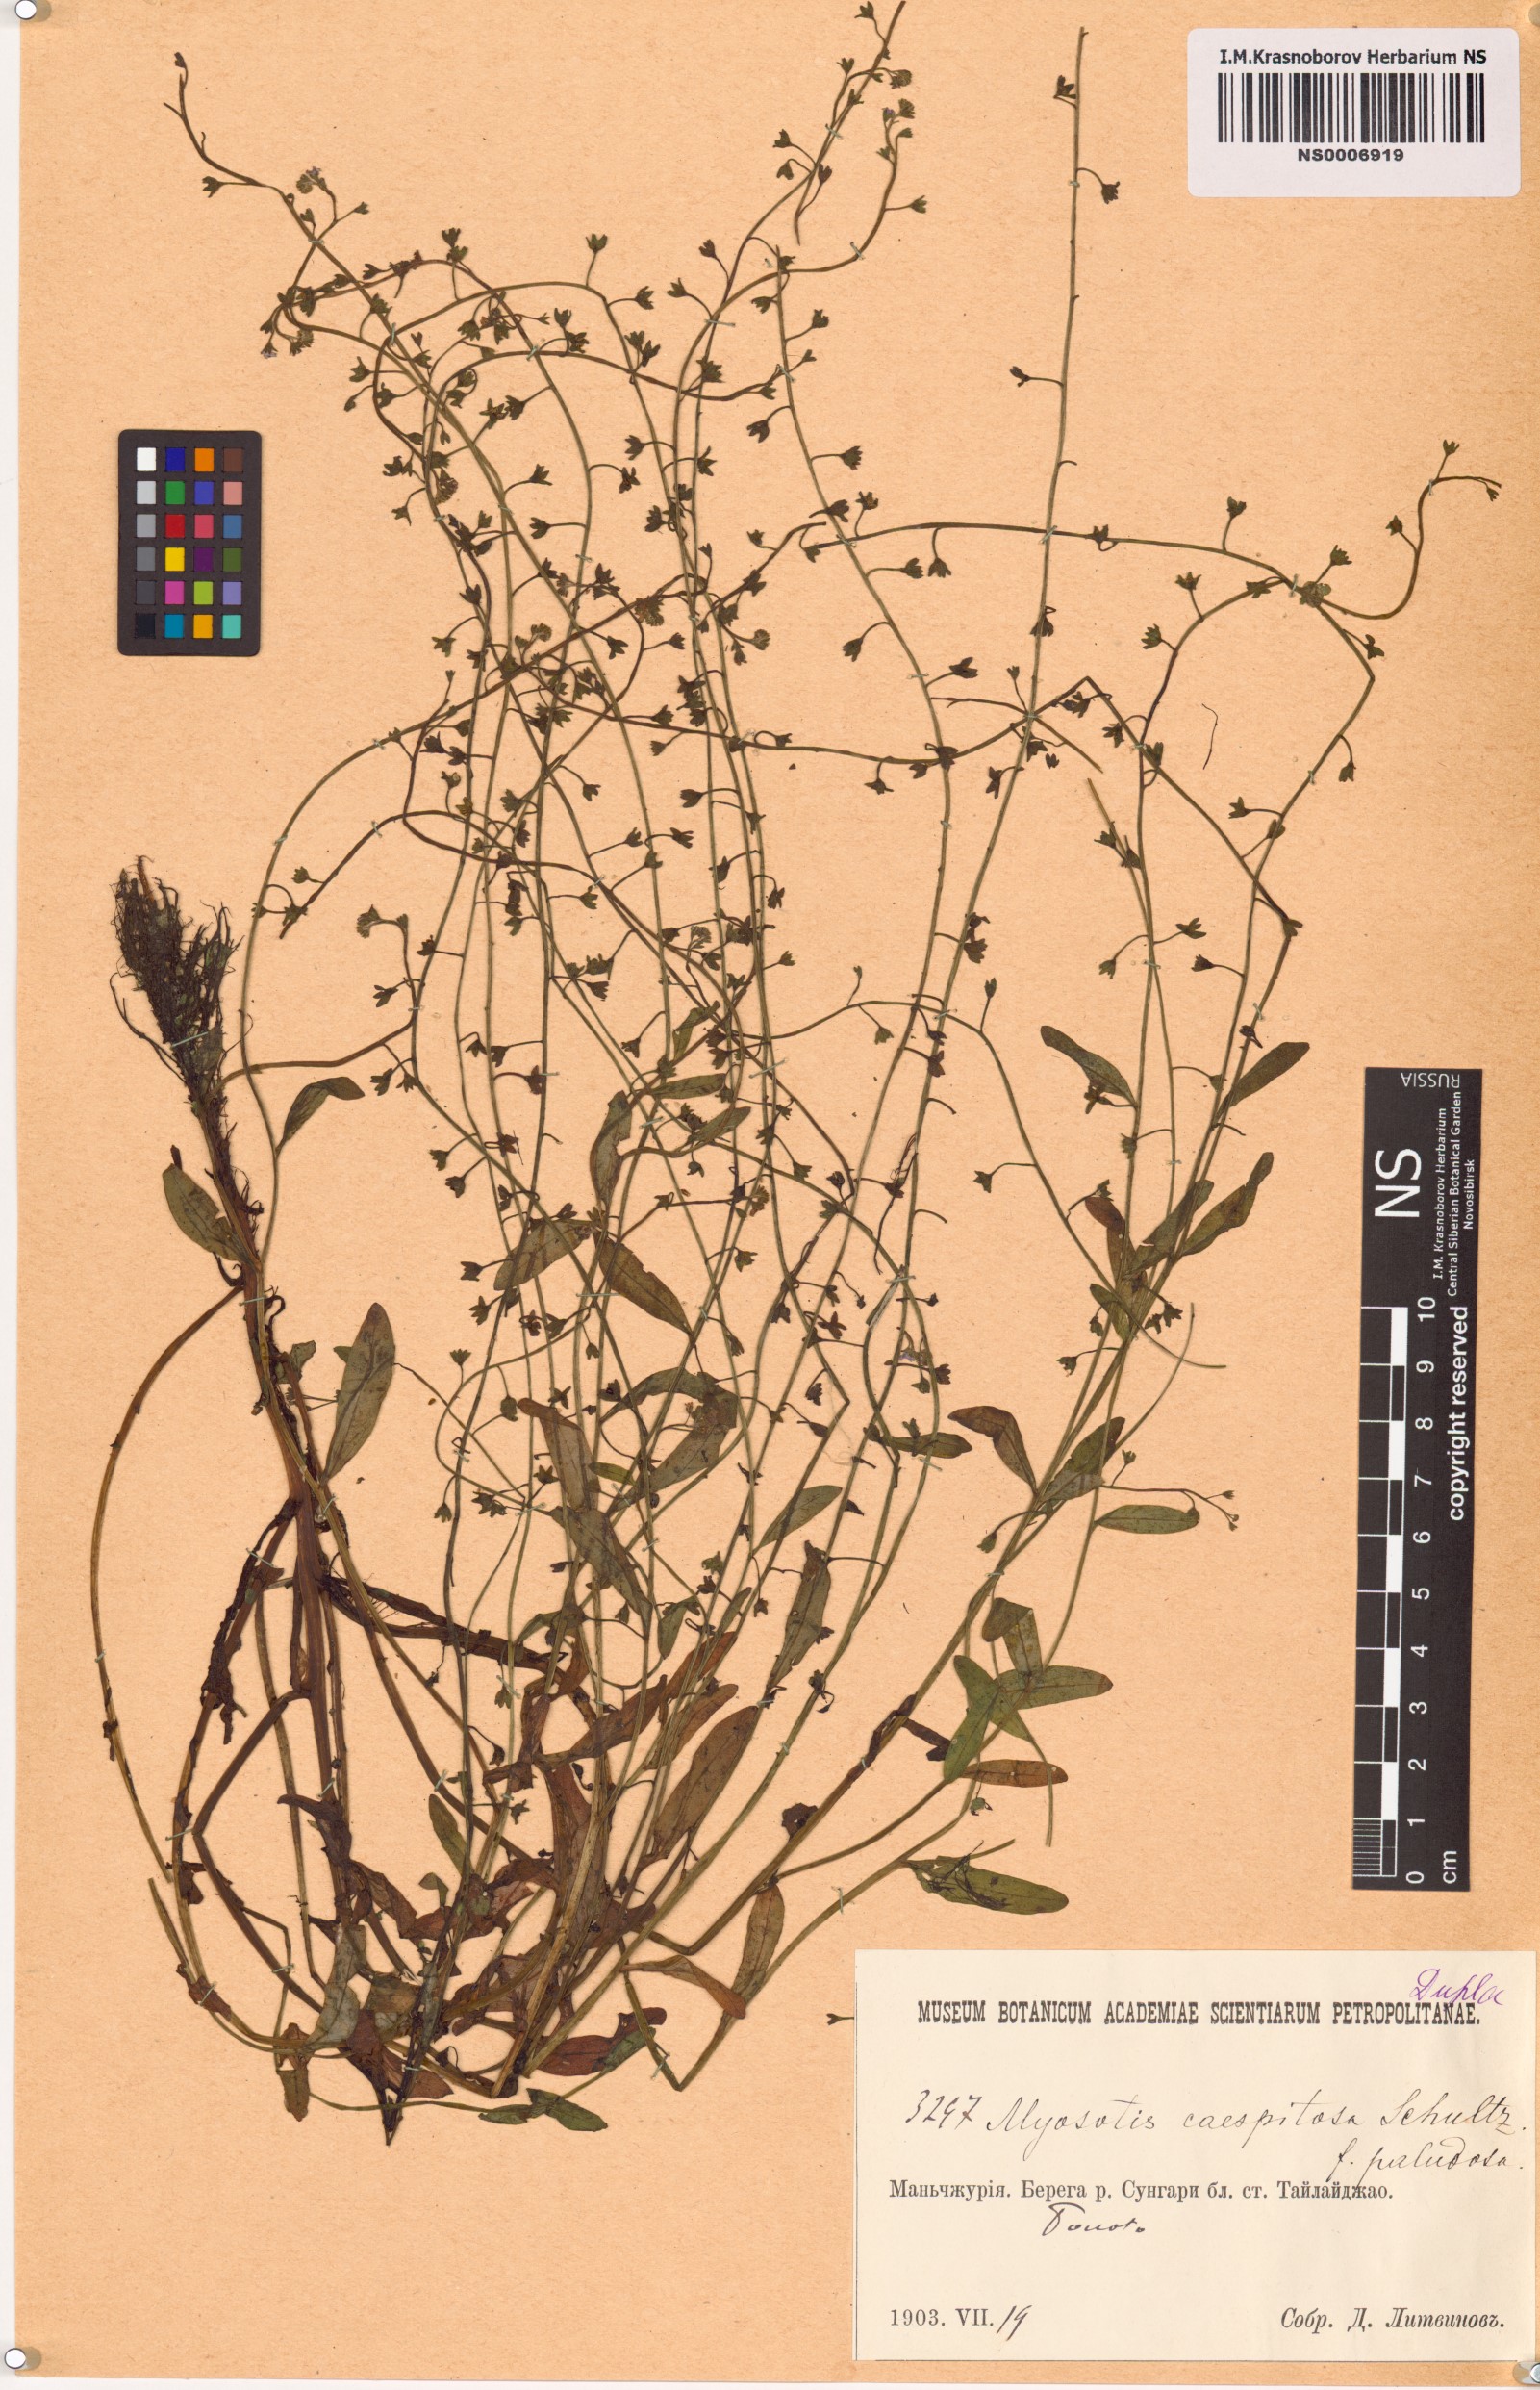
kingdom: Plantae
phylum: Tracheophyta
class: Magnoliopsida
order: Boraginales
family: Boraginaceae
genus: Myosotis
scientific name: Myosotis laxa
